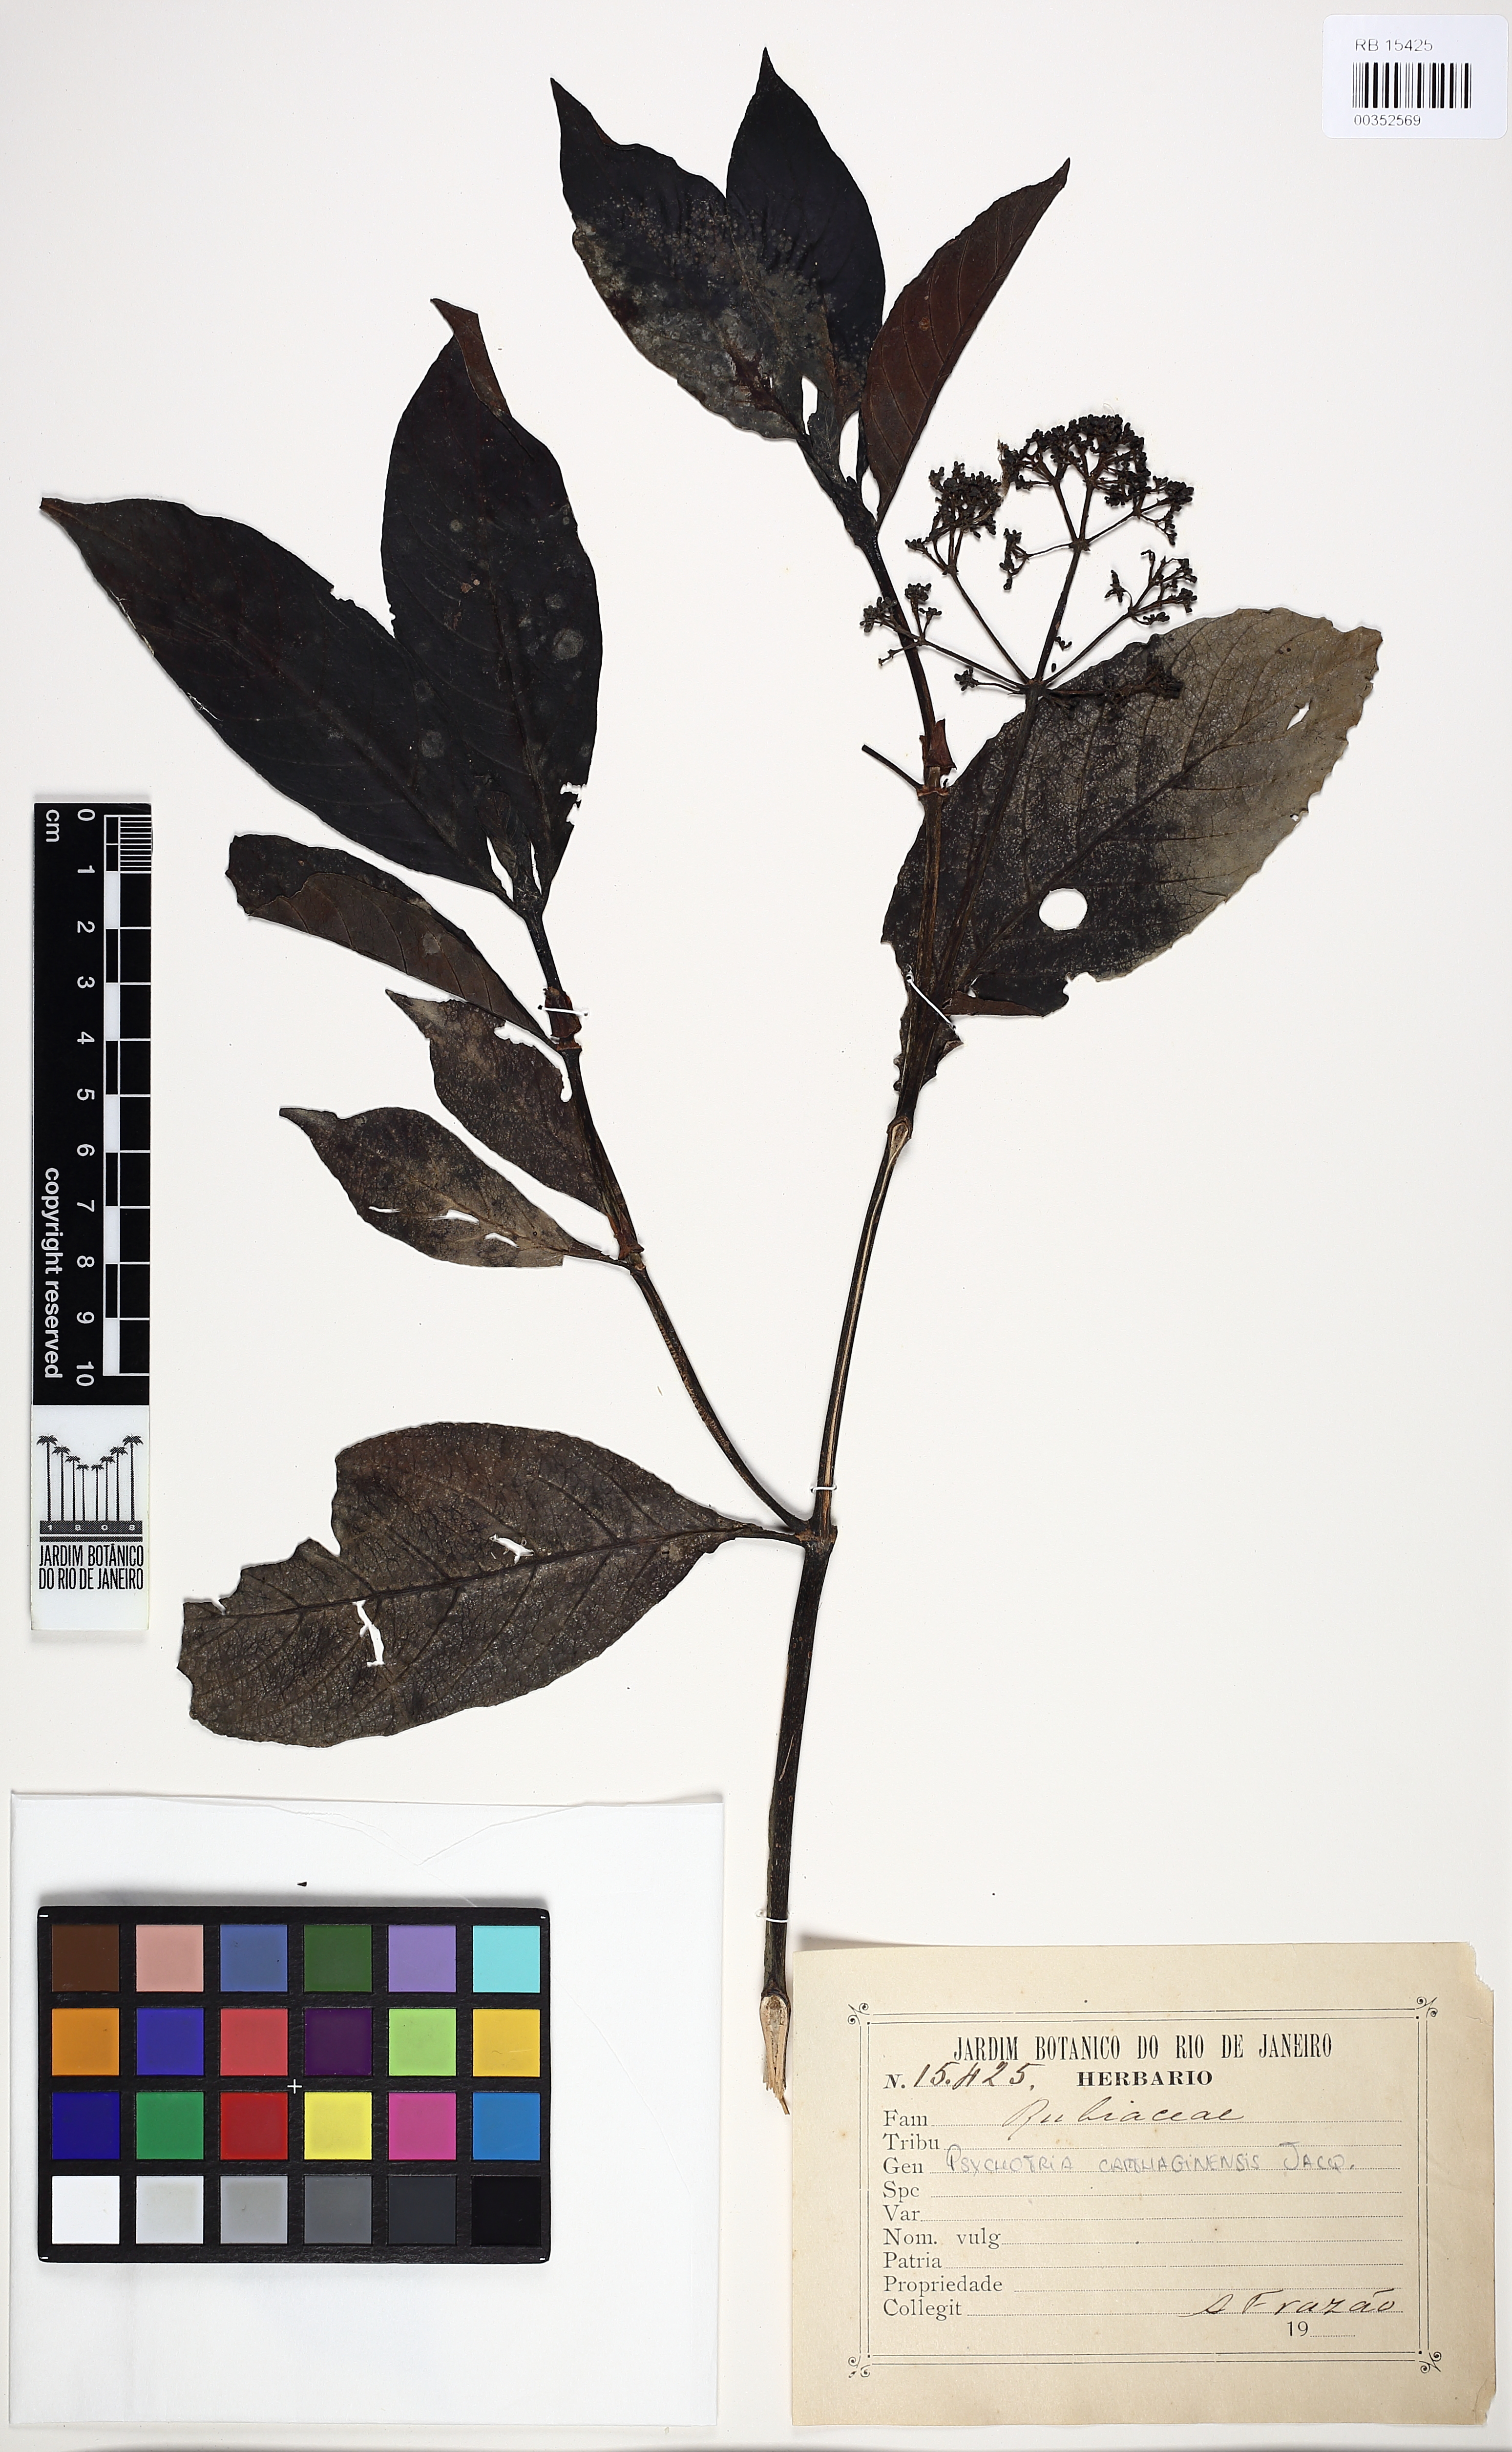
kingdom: Plantae
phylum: Tracheophyta
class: Magnoliopsida
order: Gentianales
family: Rubiaceae
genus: Psychotria
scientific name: Psychotria carthagenensis
